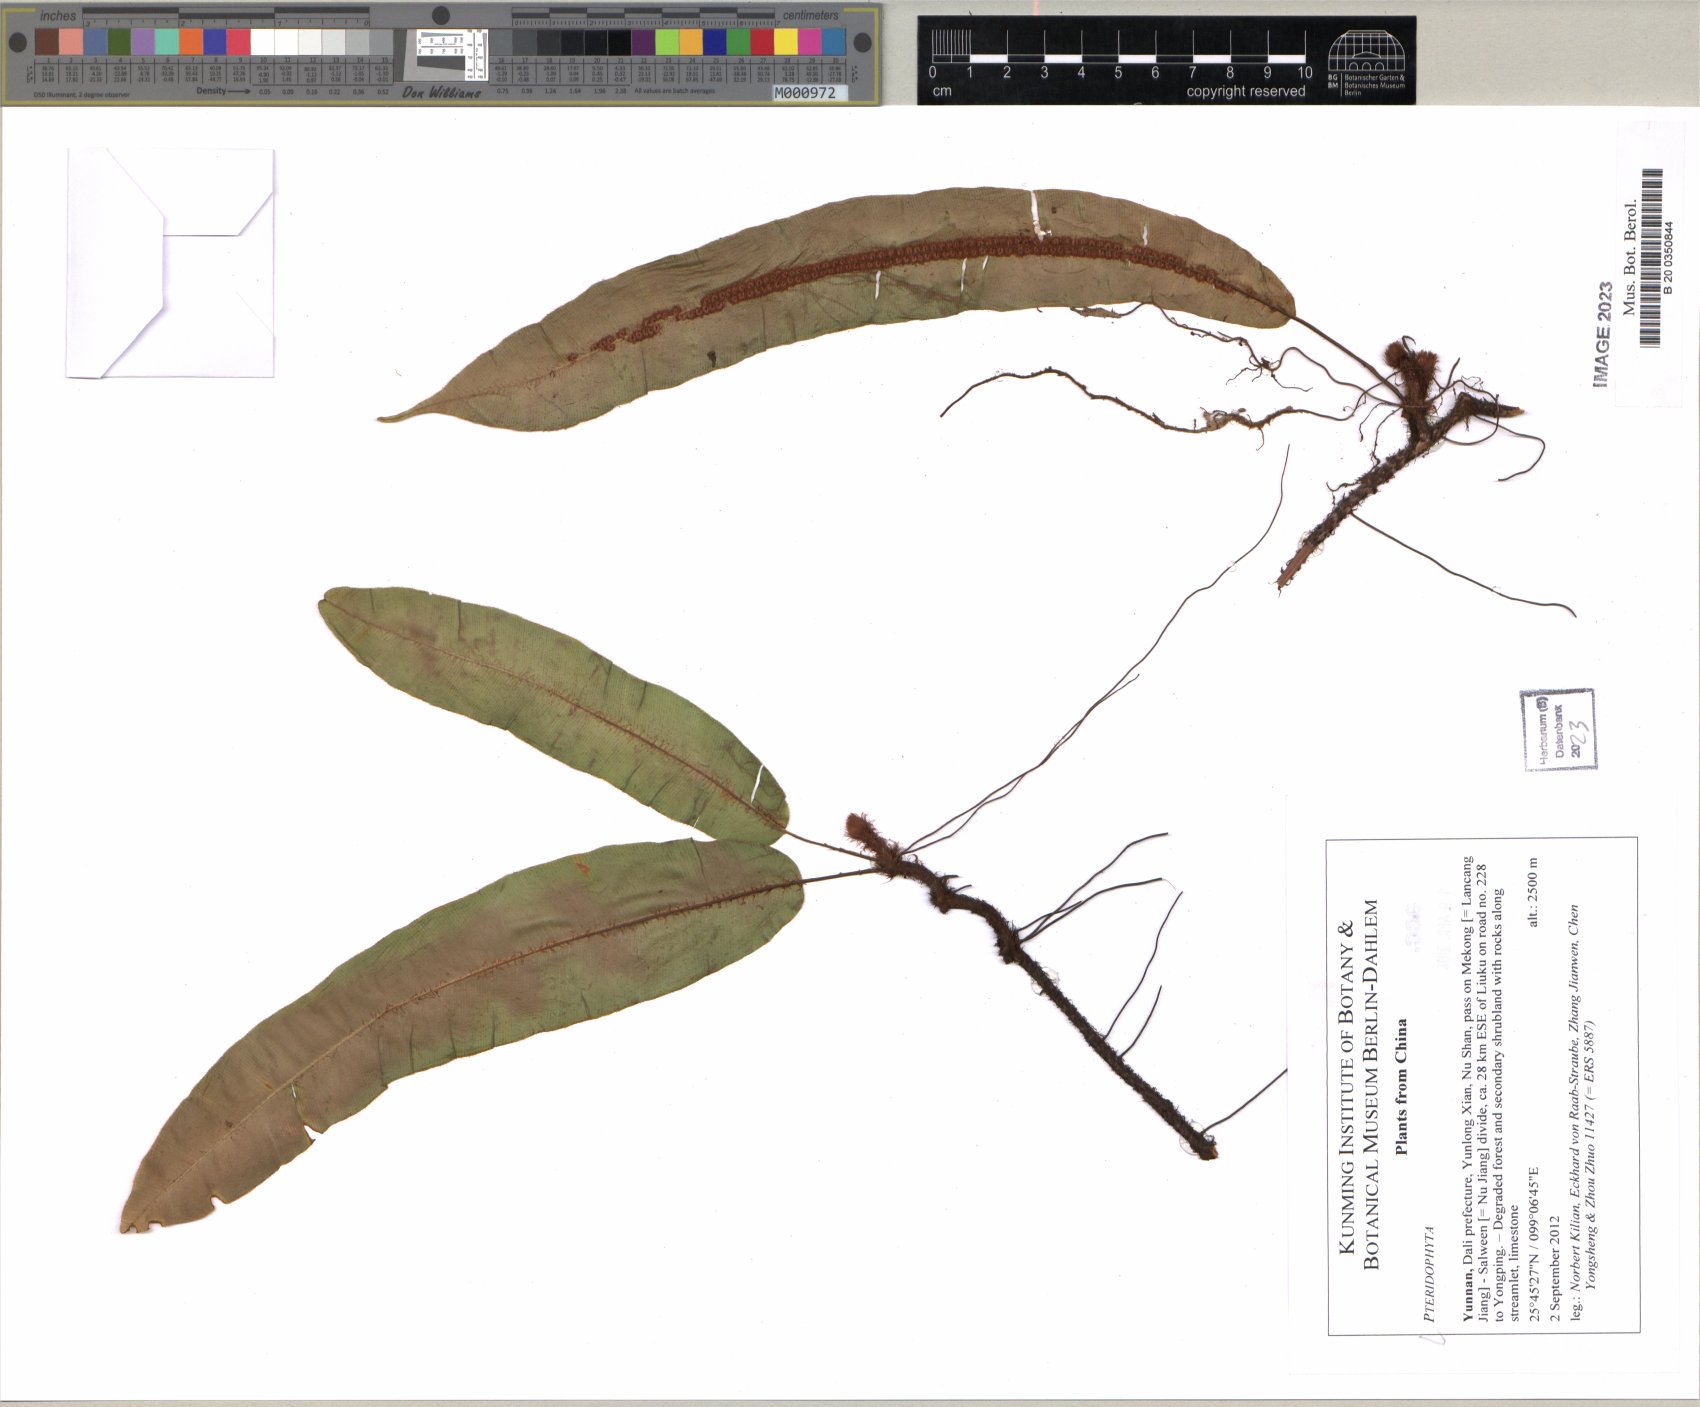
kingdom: Plantae
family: Pteridophyta
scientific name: Pteridophyta
